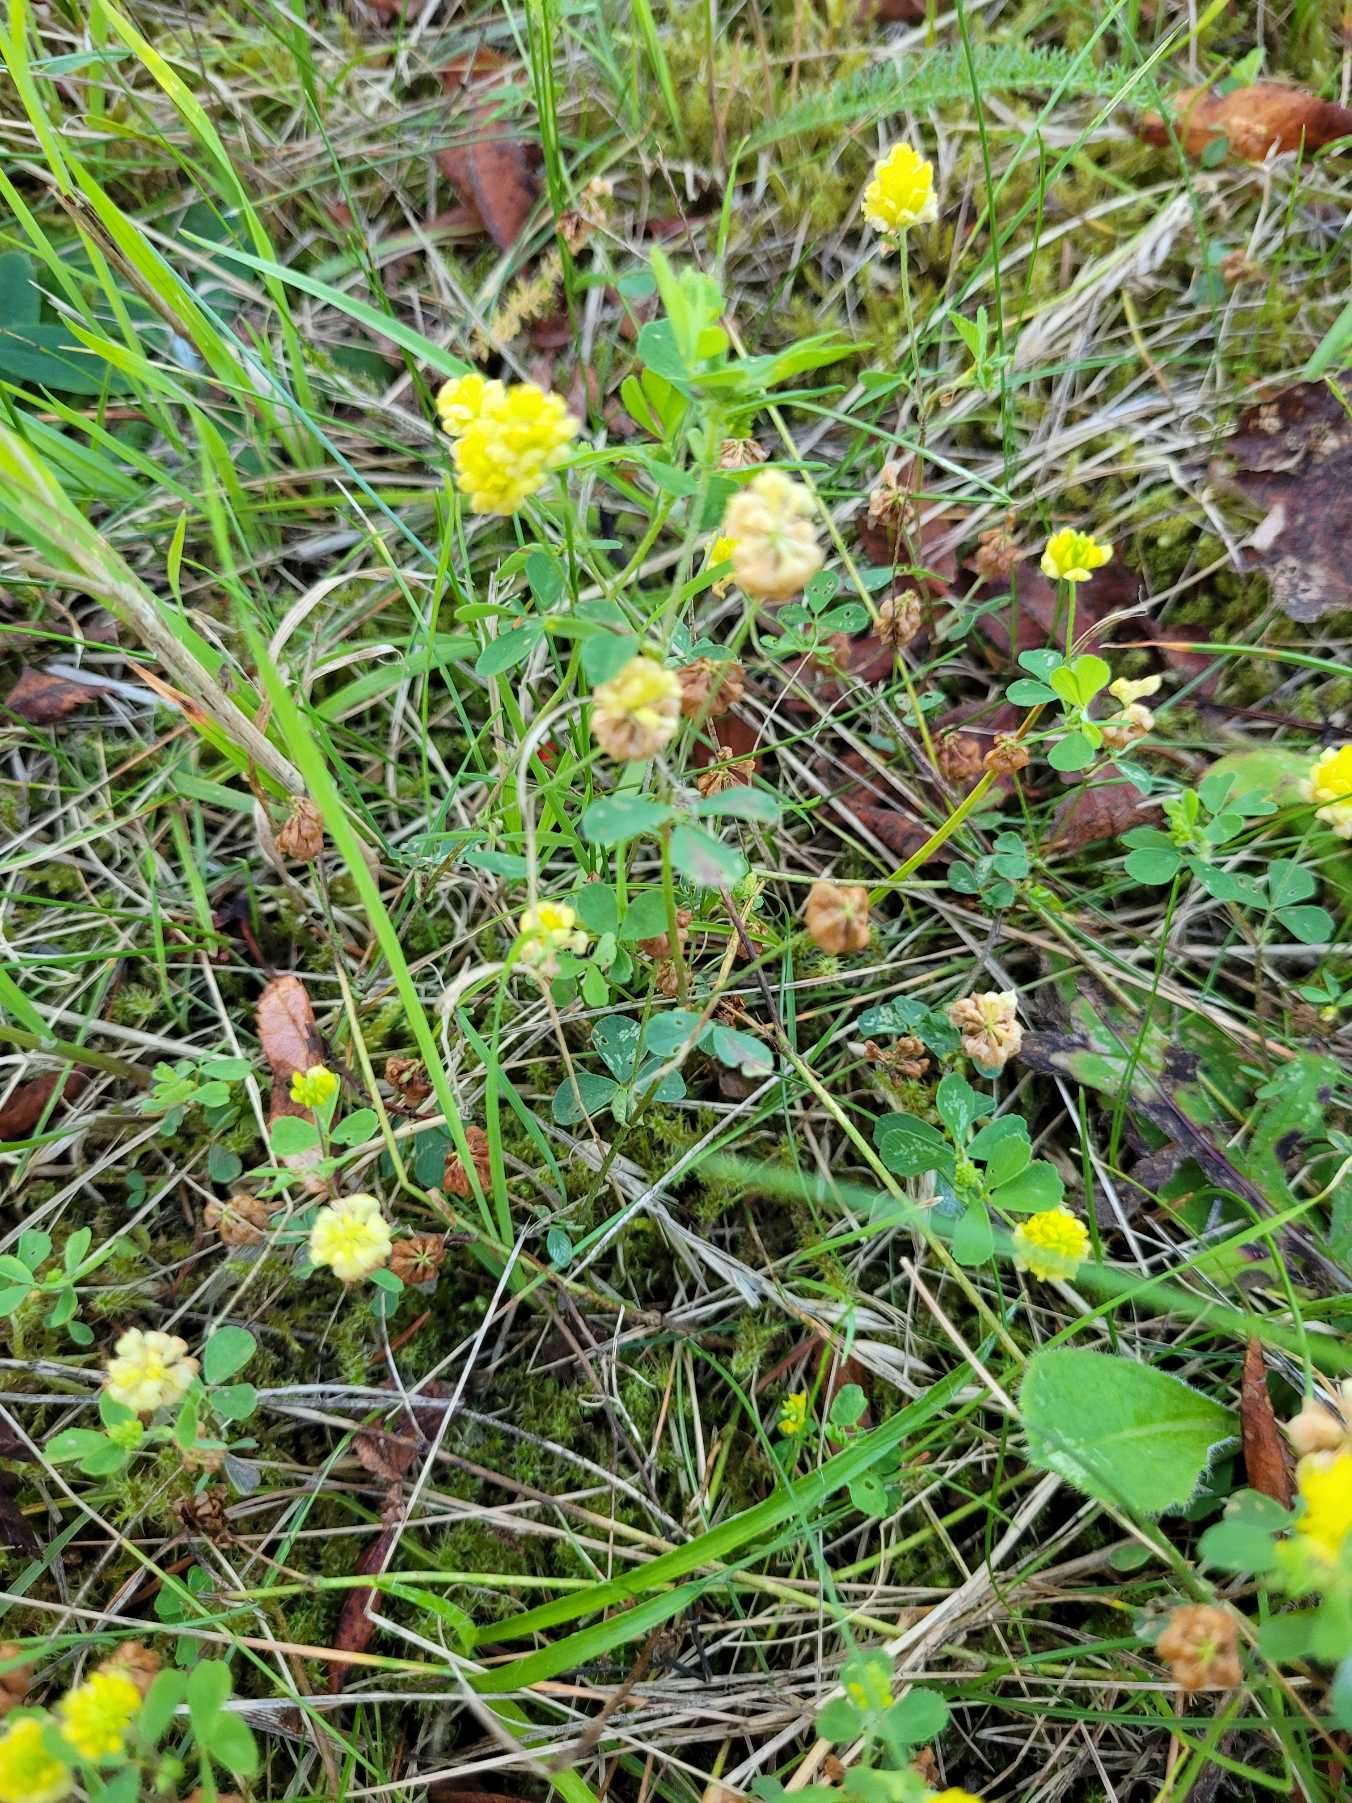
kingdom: Plantae
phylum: Tracheophyta
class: Magnoliopsida
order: Fabales
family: Fabaceae
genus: Trifolium
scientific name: Trifolium campestre
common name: Gul kløver
